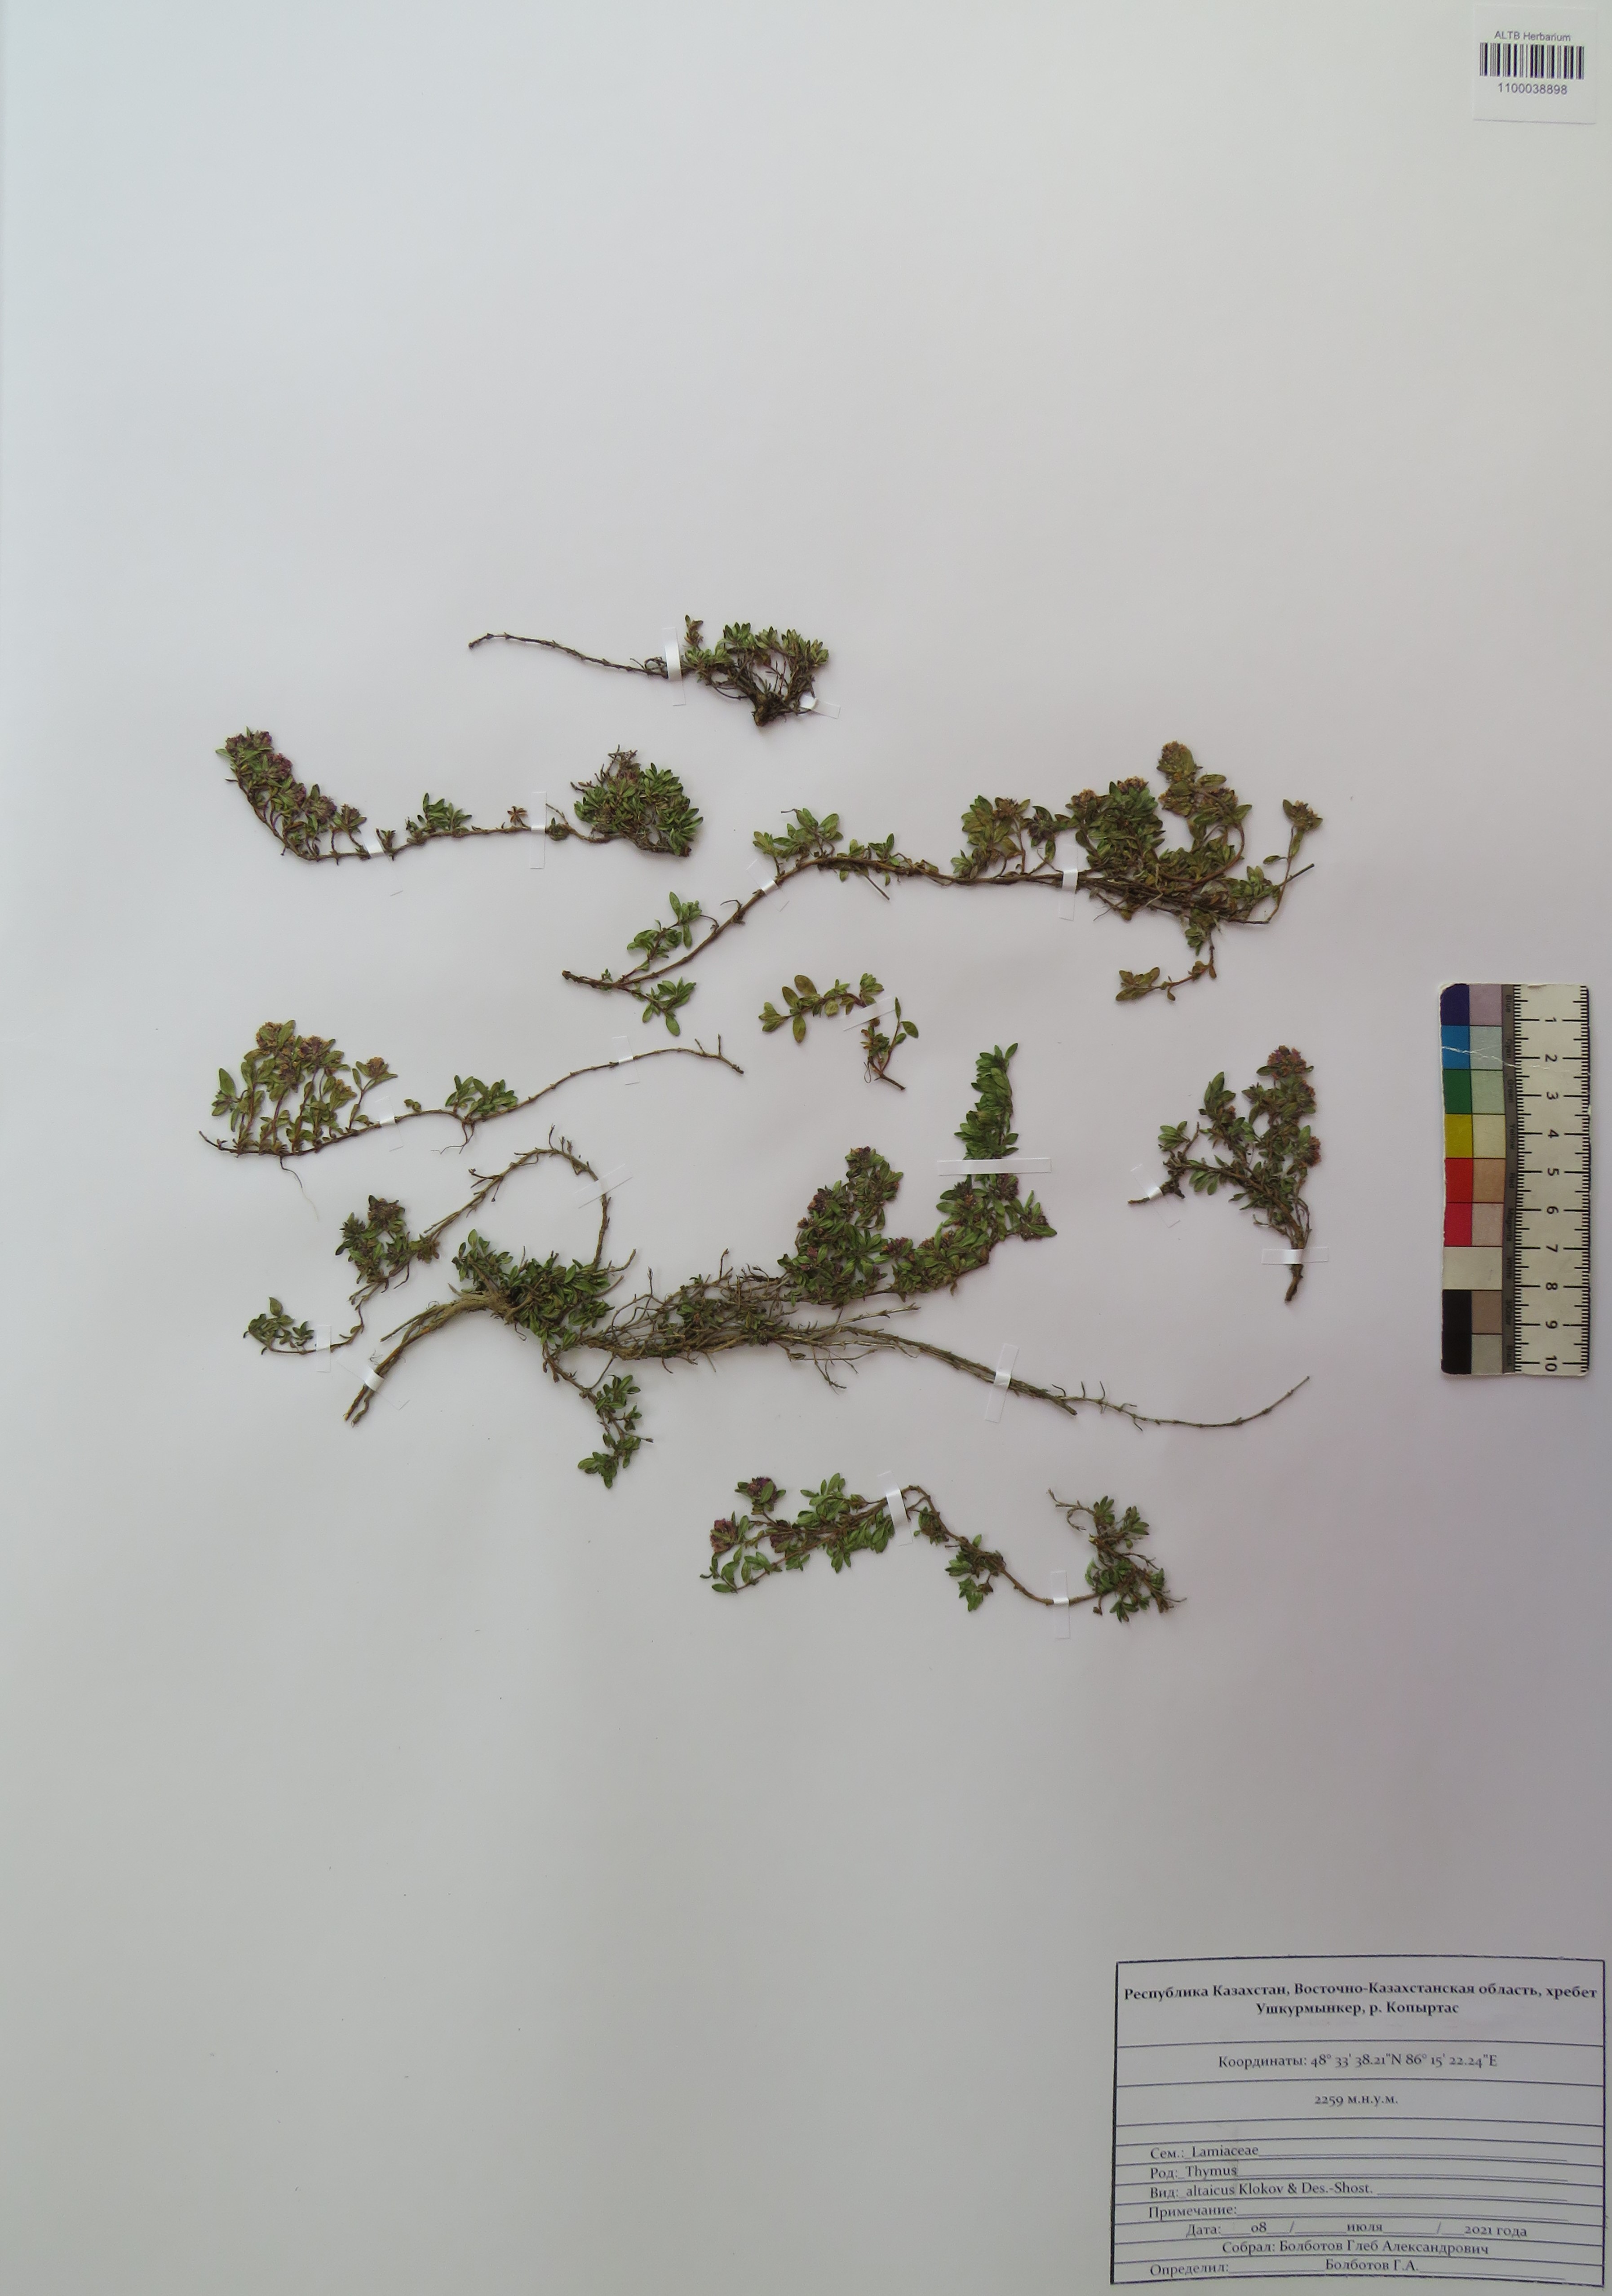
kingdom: Plantae
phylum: Tracheophyta
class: Magnoliopsida
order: Lamiales
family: Lamiaceae
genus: Thymus
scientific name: Thymus altaicus
